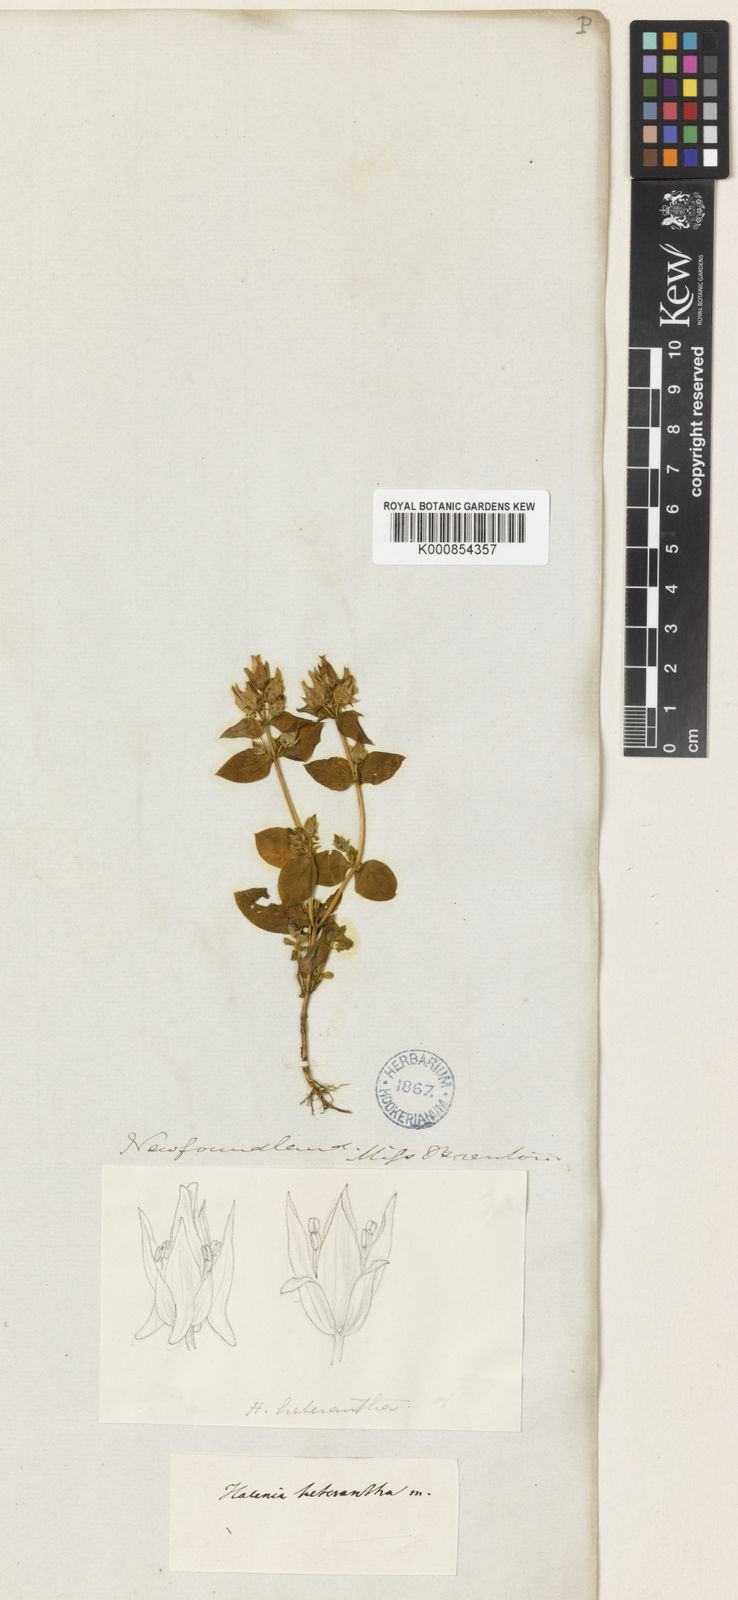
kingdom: Plantae
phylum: Tracheophyta
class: Magnoliopsida
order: Gentianales
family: Gentianaceae
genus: Halenia
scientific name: Halenia deflexa
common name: American spurred gentian
